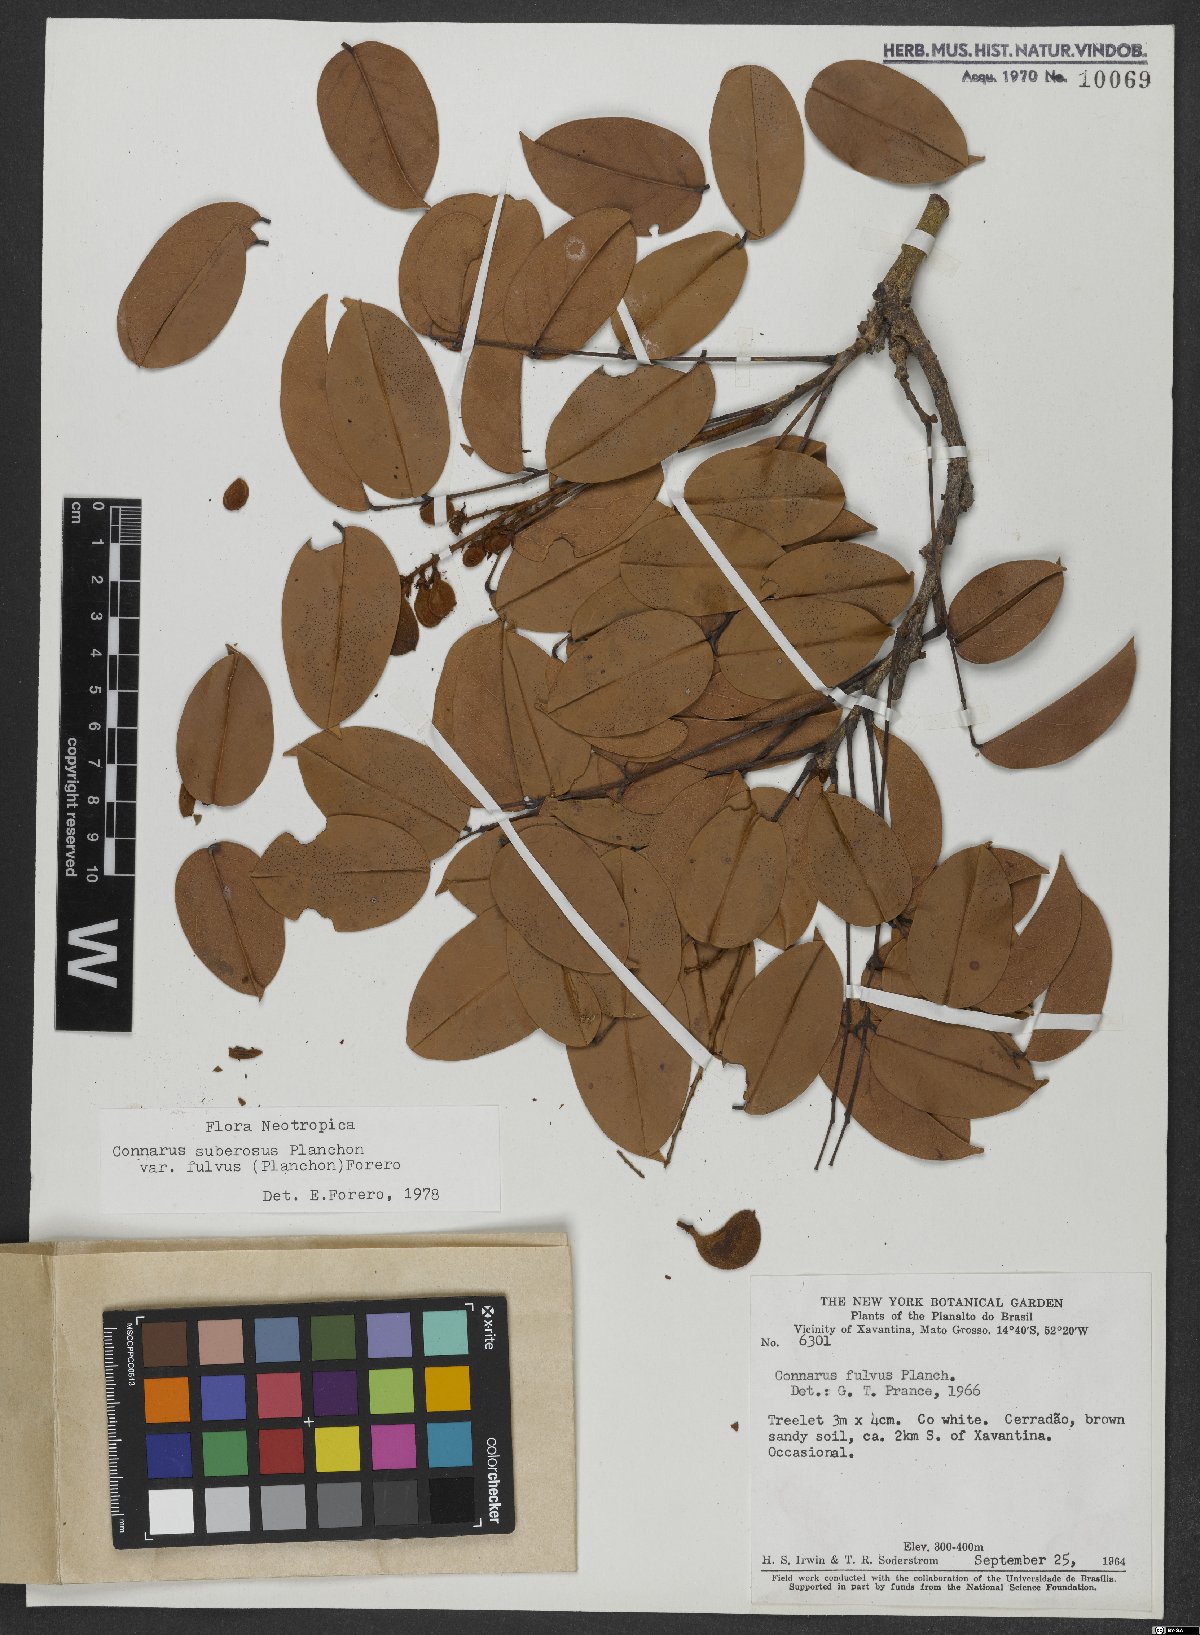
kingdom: Plantae
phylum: Tracheophyta
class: Magnoliopsida
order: Oxalidales
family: Connaraceae
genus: Connarus
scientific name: Connarus suberosus
